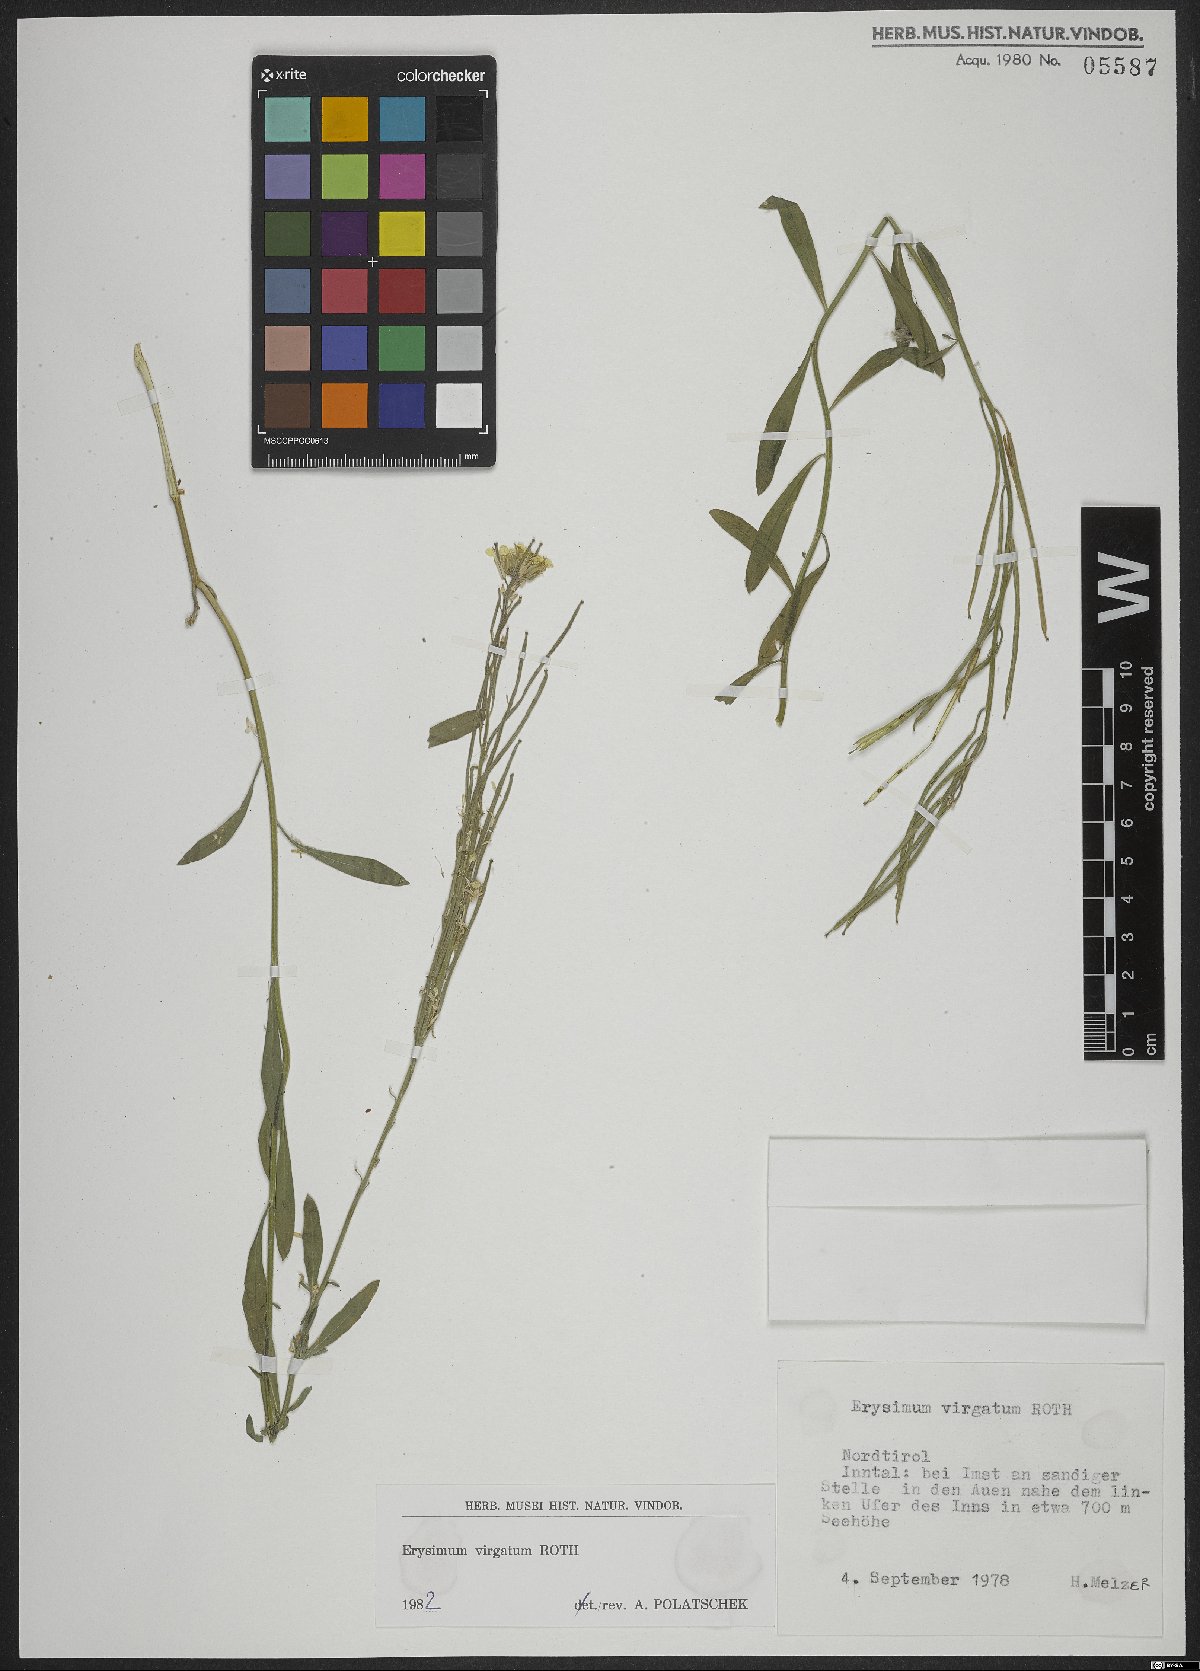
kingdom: Plantae
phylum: Tracheophyta
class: Magnoliopsida
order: Brassicales
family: Brassicaceae
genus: Erysimum
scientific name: Erysimum virgatum
